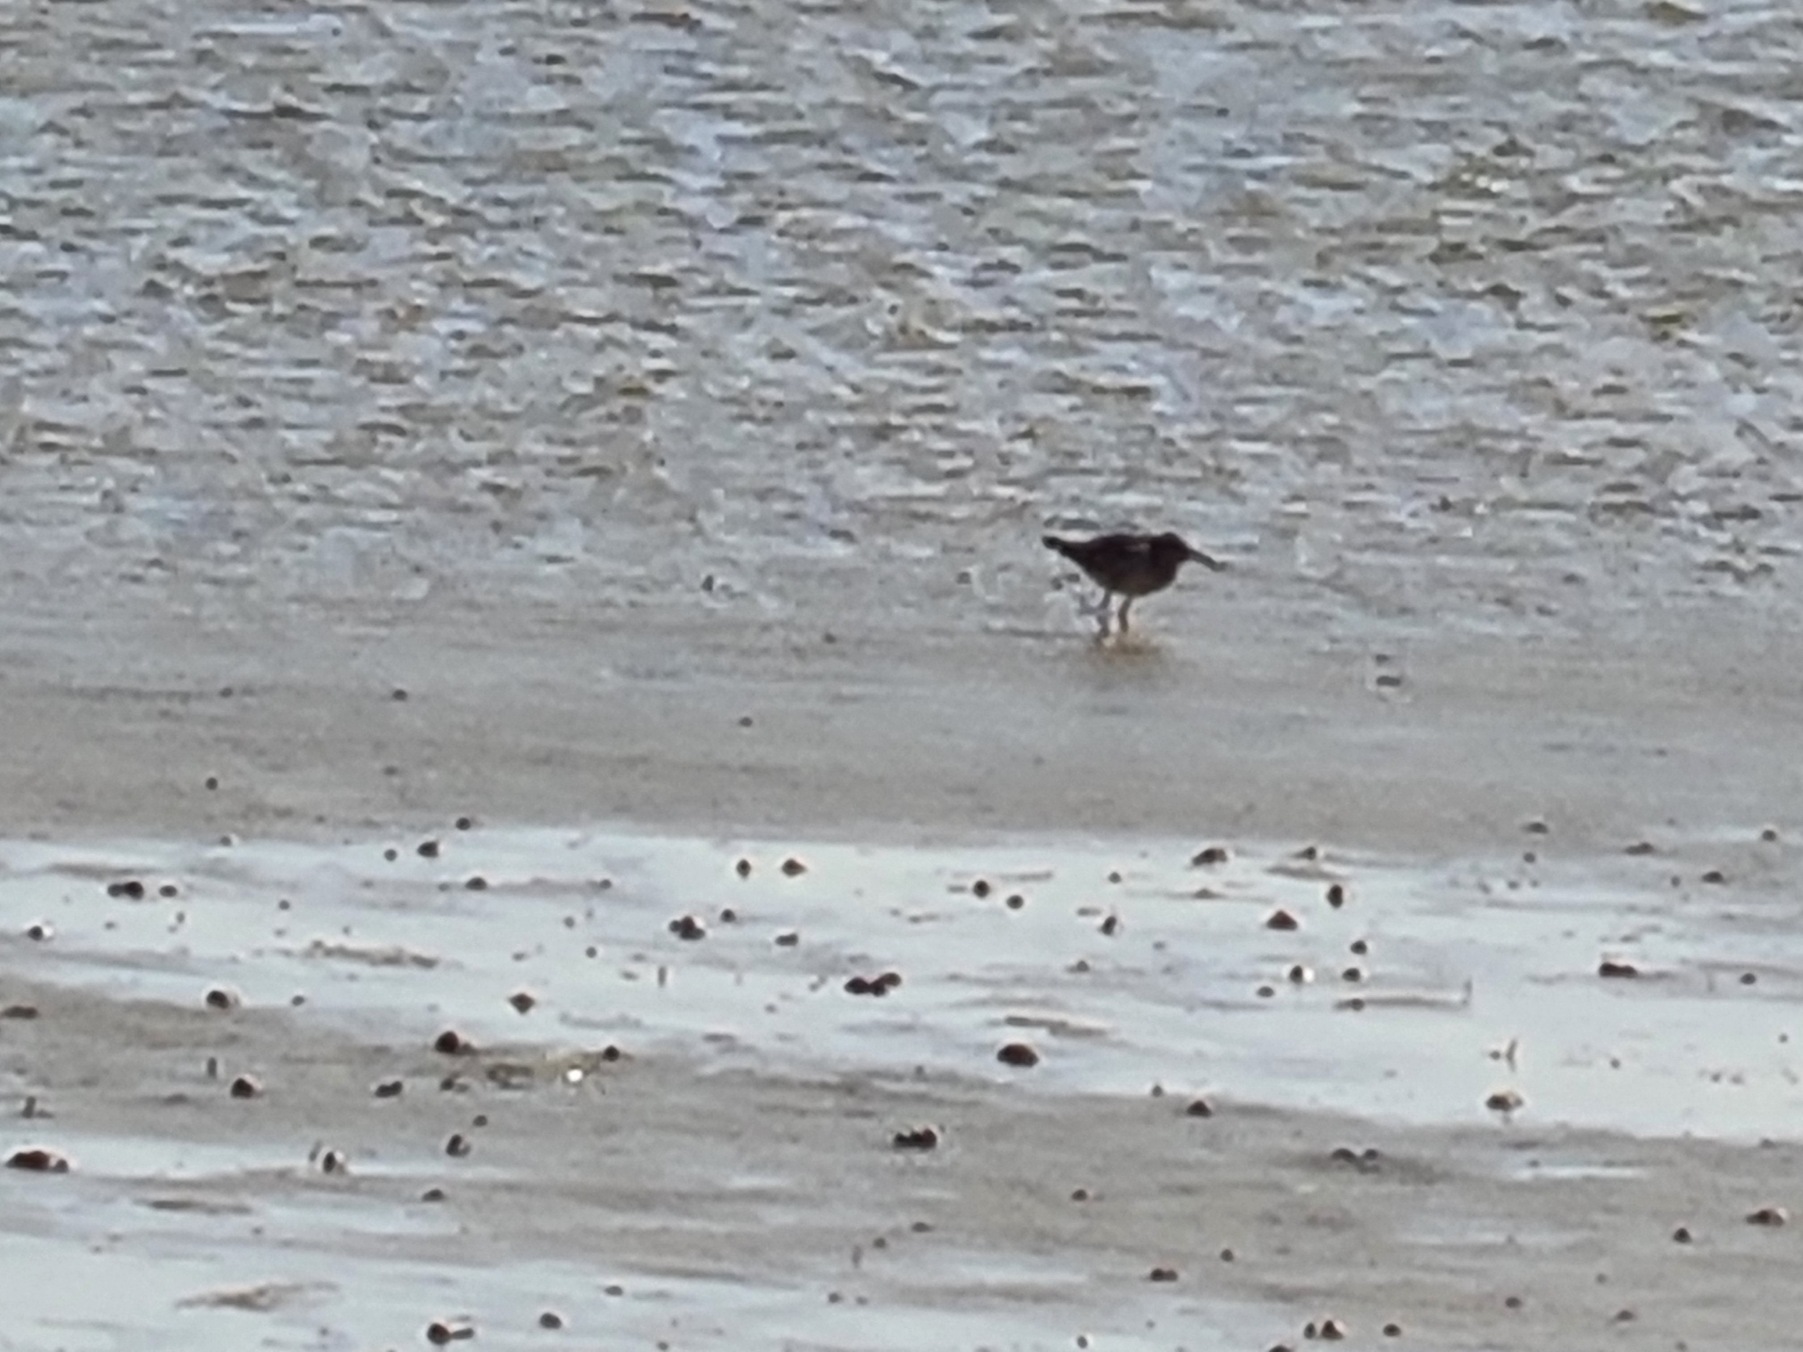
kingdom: Animalia
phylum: Chordata
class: Aves
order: Charadriiformes
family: Scolopacidae
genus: Tringa
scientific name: Tringa totanus
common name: Rødben
